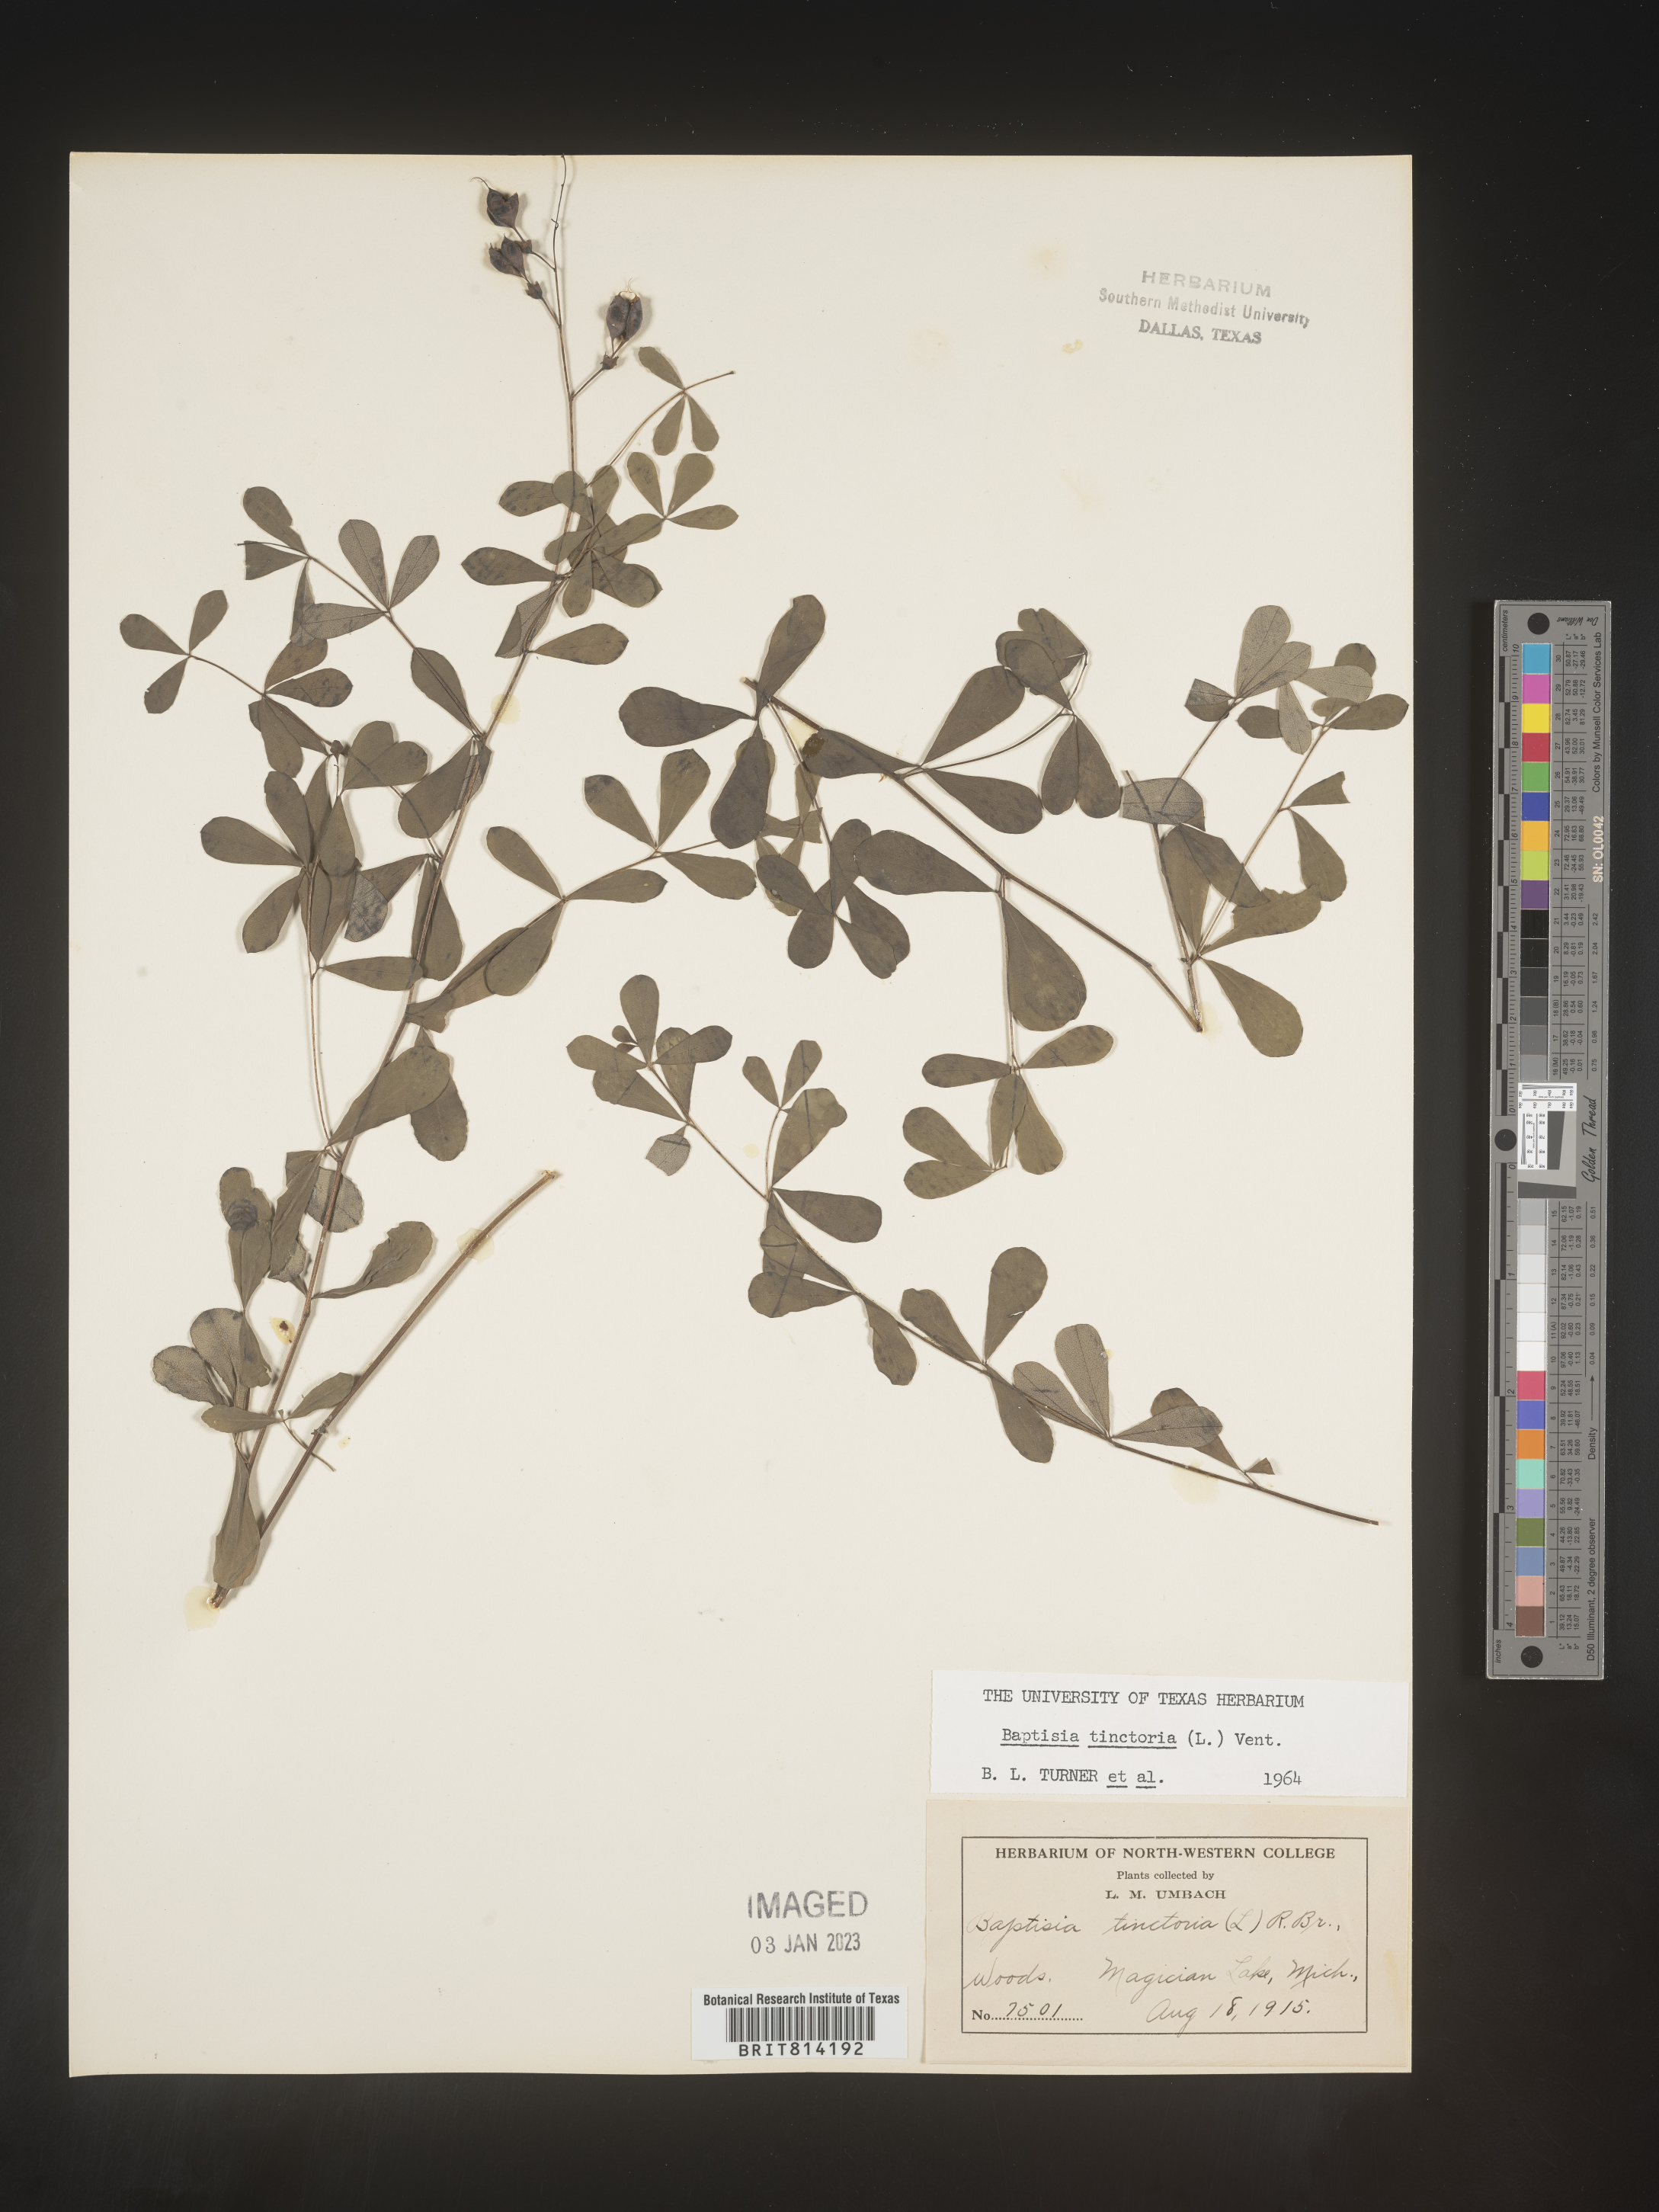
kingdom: Plantae
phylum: Tracheophyta
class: Magnoliopsida
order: Fabales
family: Fabaceae
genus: Baptisia
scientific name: Baptisia tinctoria
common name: Wild indigo
